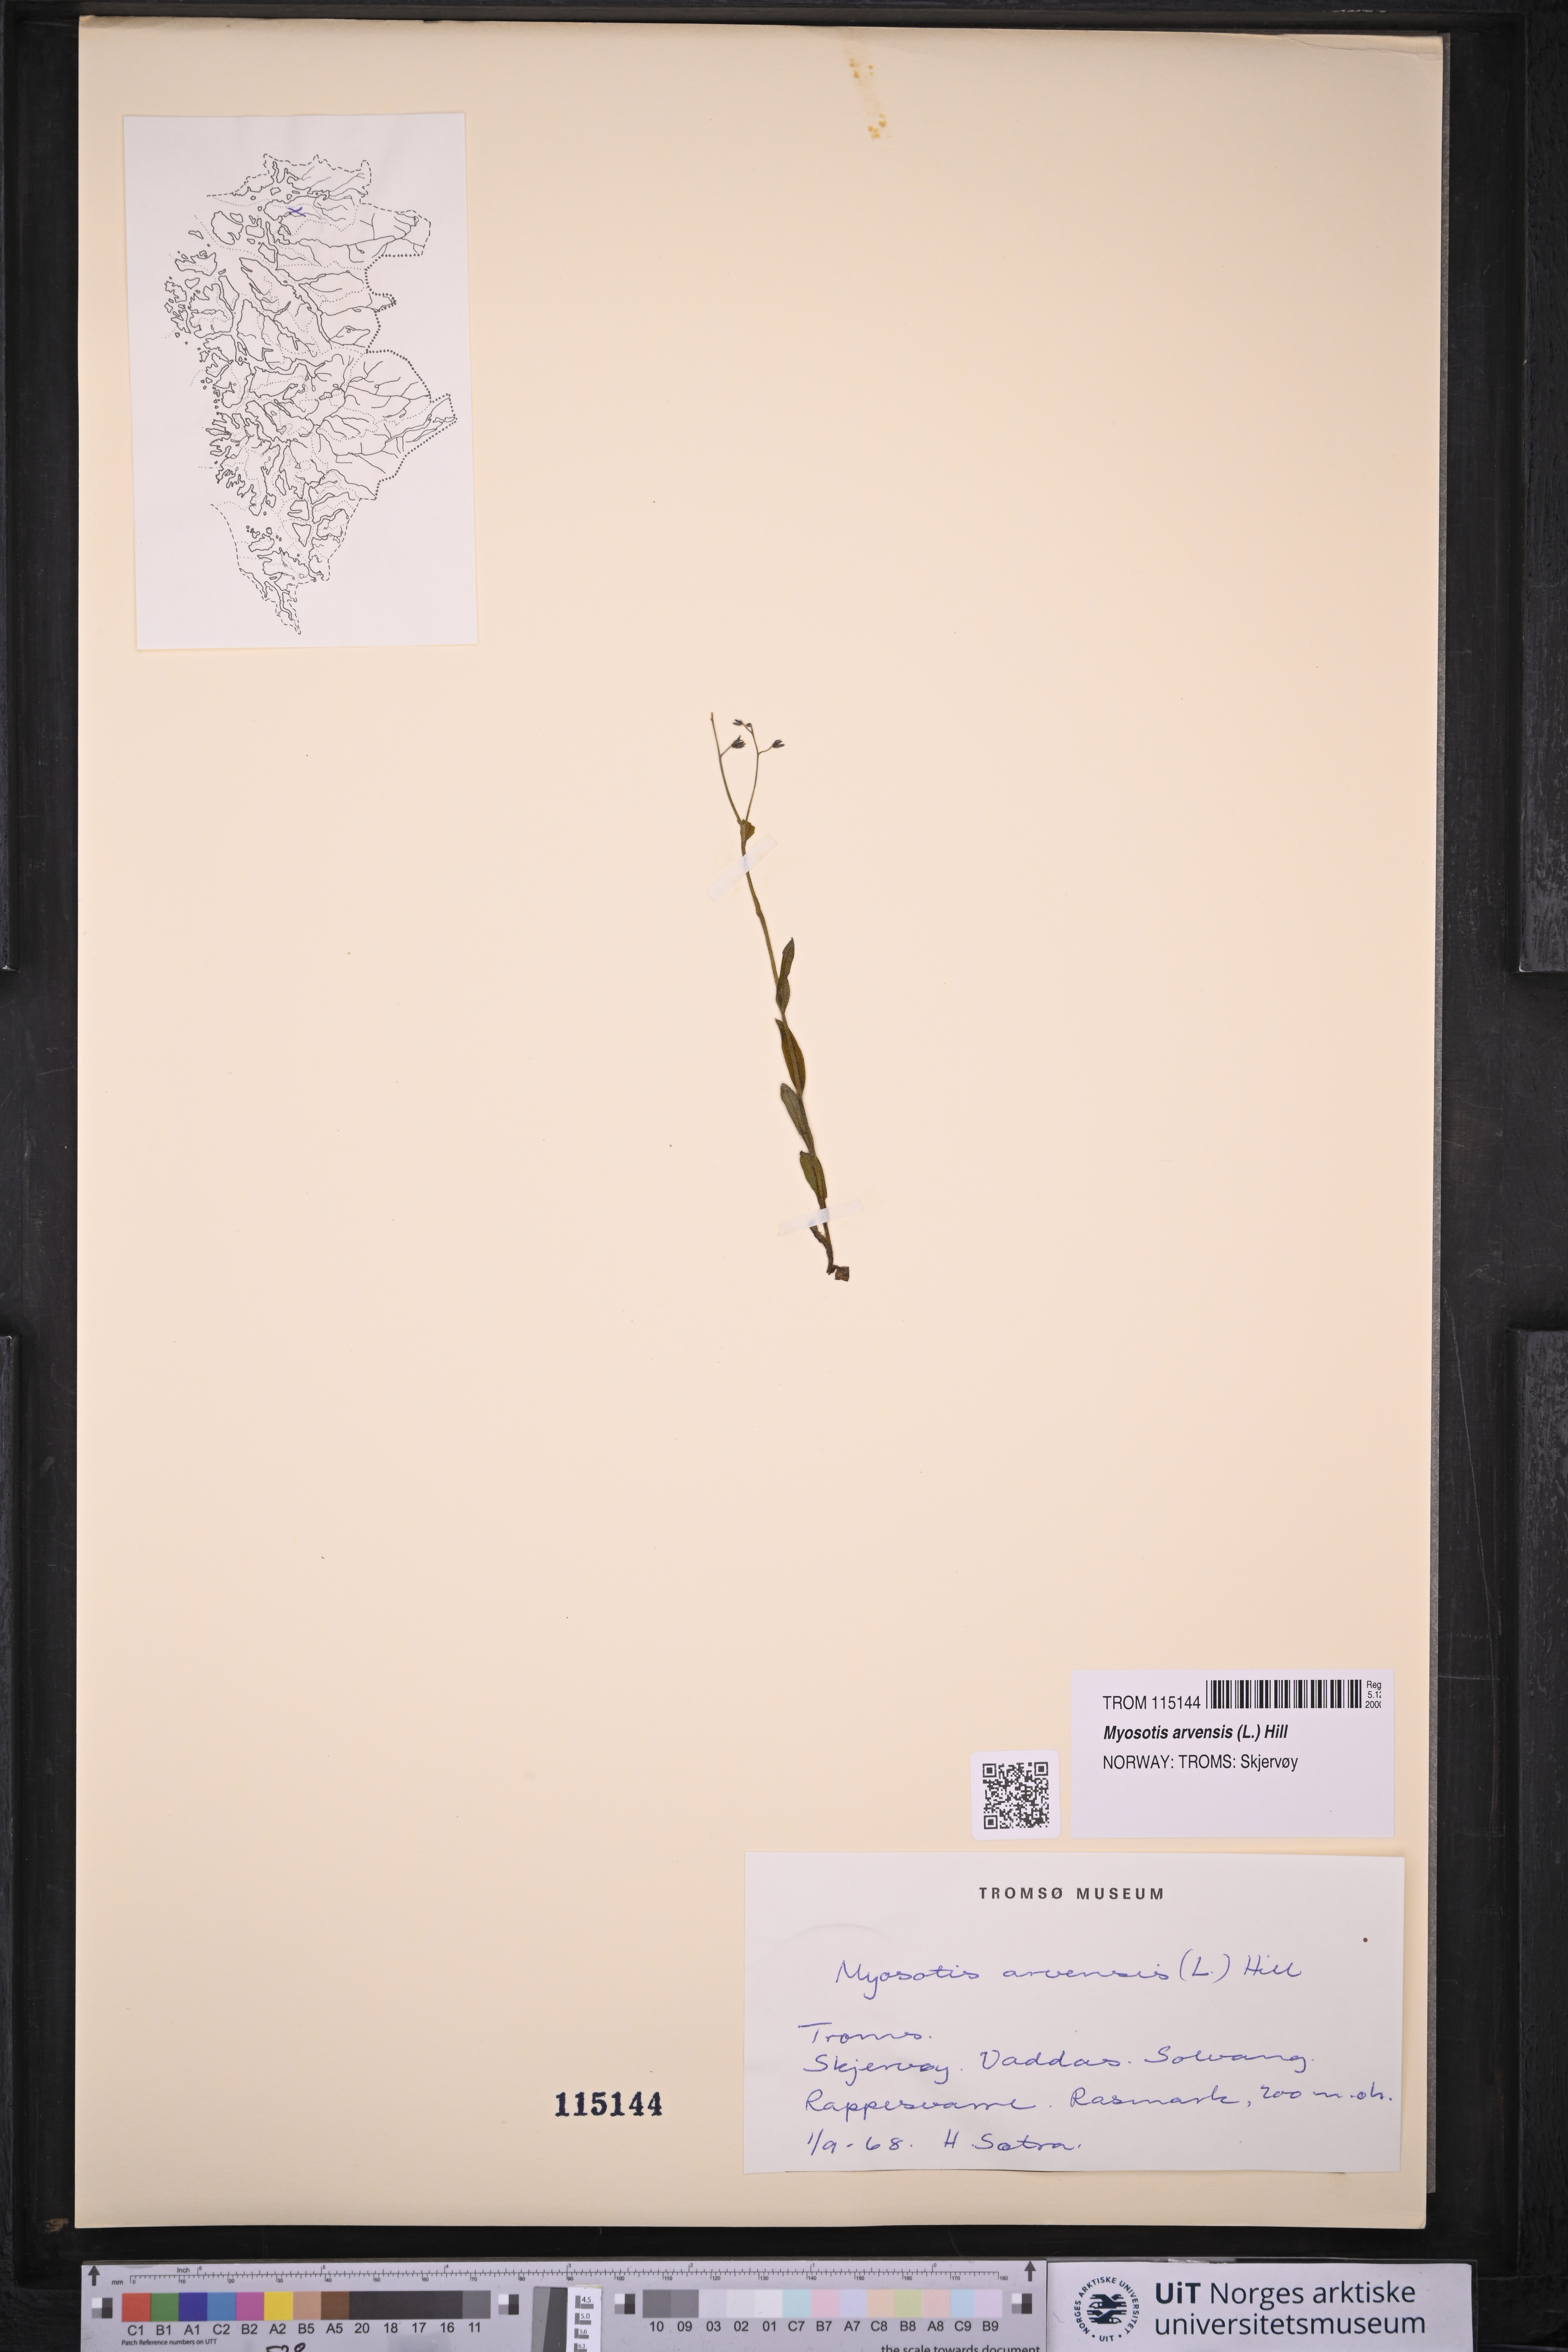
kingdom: Plantae
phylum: Tracheophyta
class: Magnoliopsida
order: Boraginales
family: Boraginaceae
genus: Myosotis
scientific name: Myosotis arvensis
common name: Field forget-me-not
